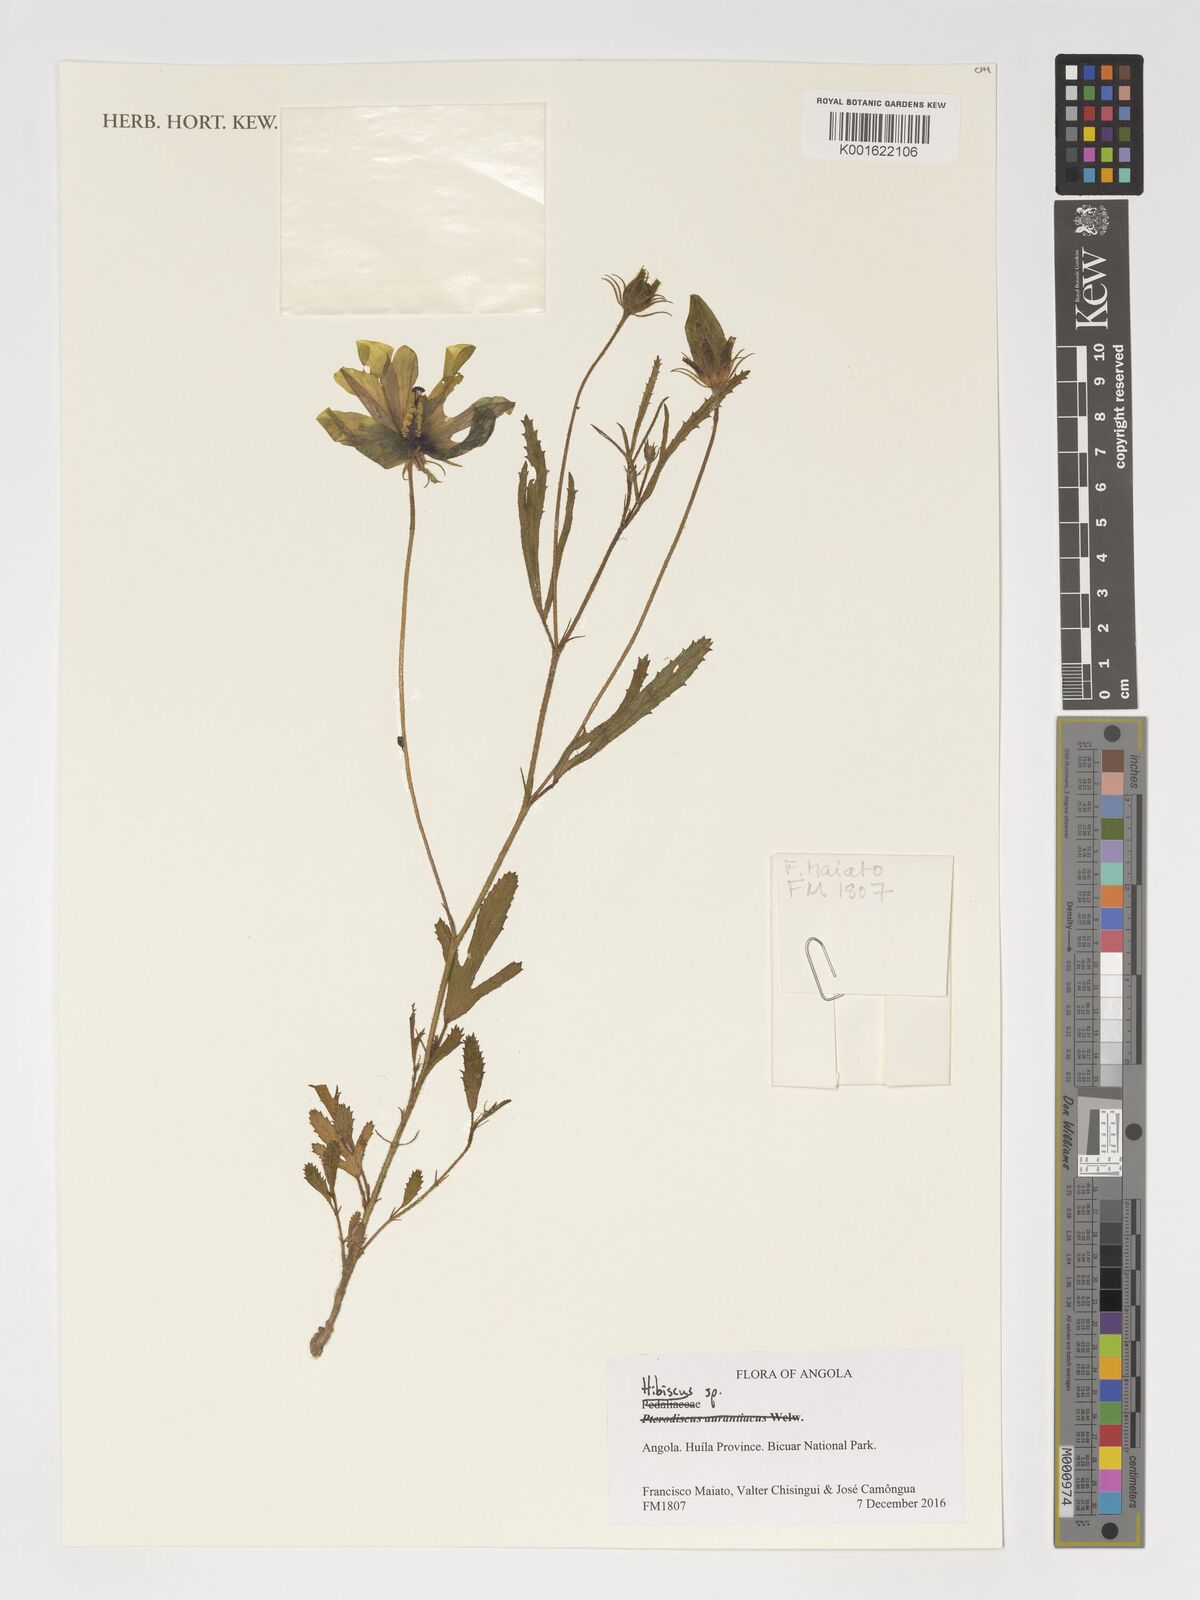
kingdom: Plantae
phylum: Tracheophyta
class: Magnoliopsida
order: Malvales
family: Malvaceae
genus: Hibiscus
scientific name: Hibiscus
